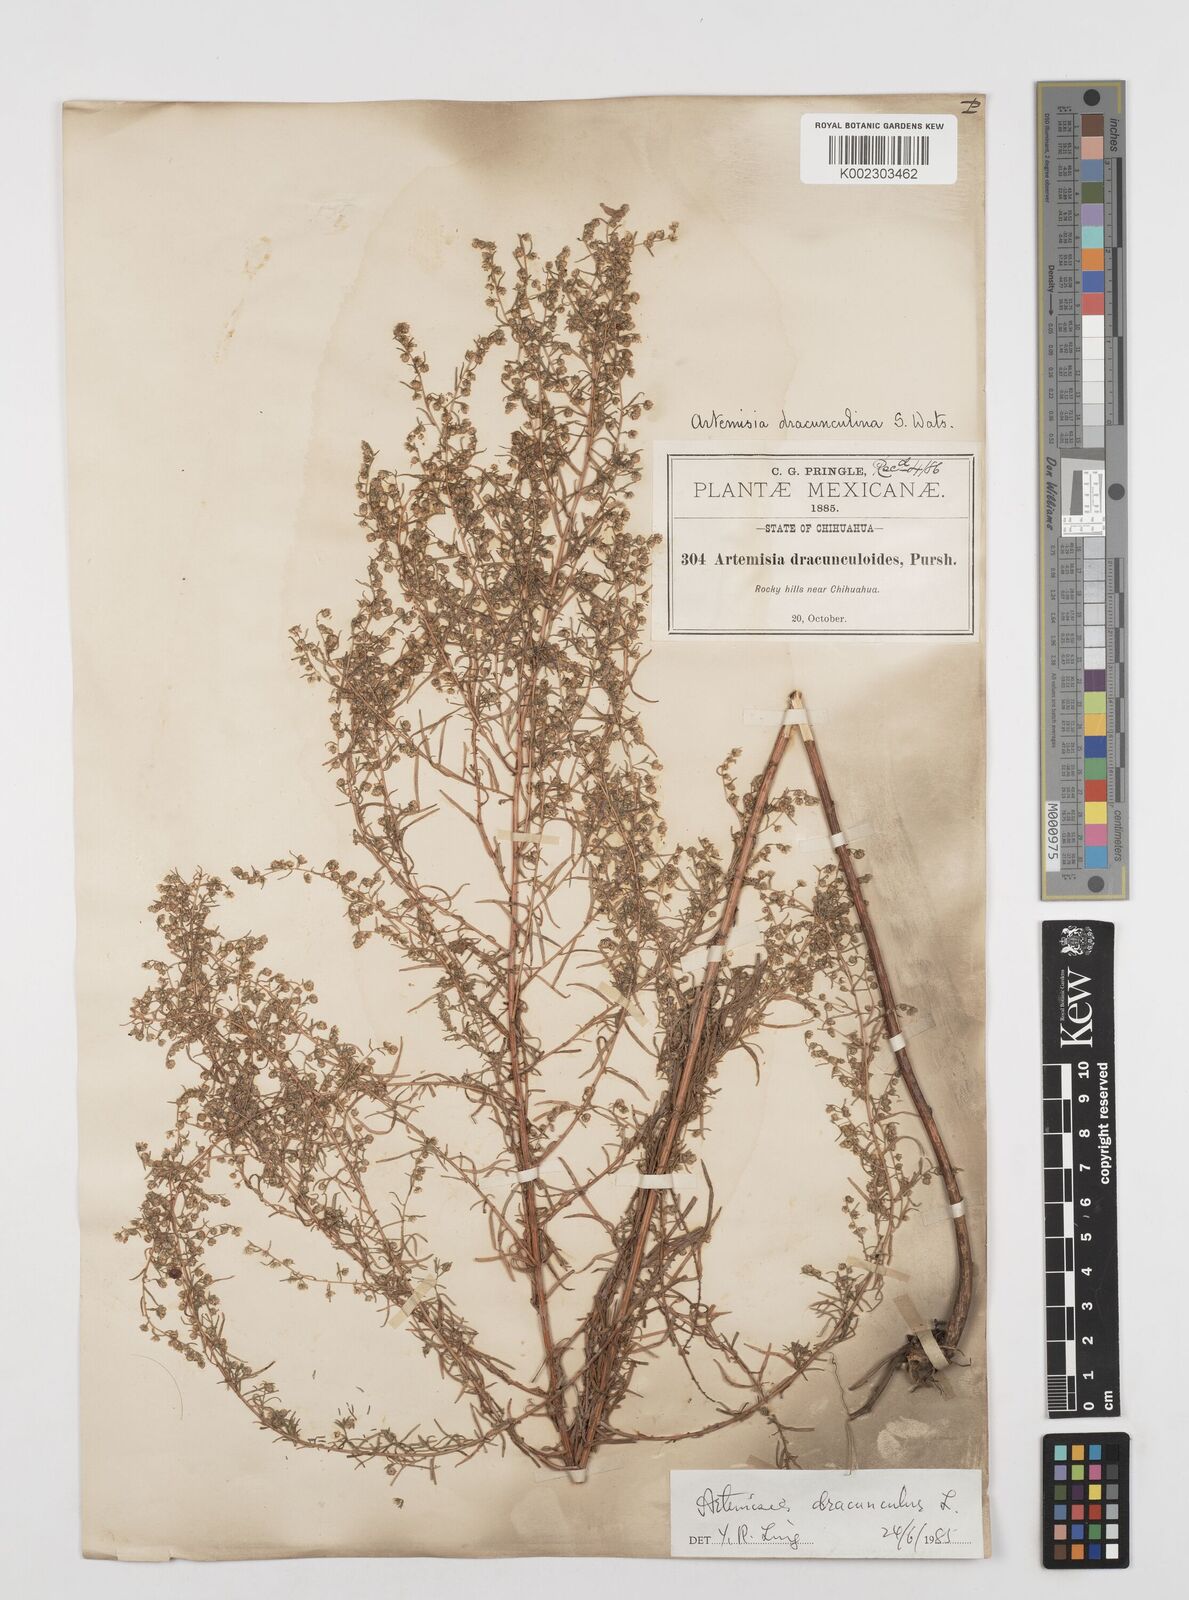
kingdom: Plantae
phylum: Tracheophyta
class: Magnoliopsida
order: Asterales
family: Asteraceae
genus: Artemisia
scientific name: Artemisia dracunculus
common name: Tarragon
